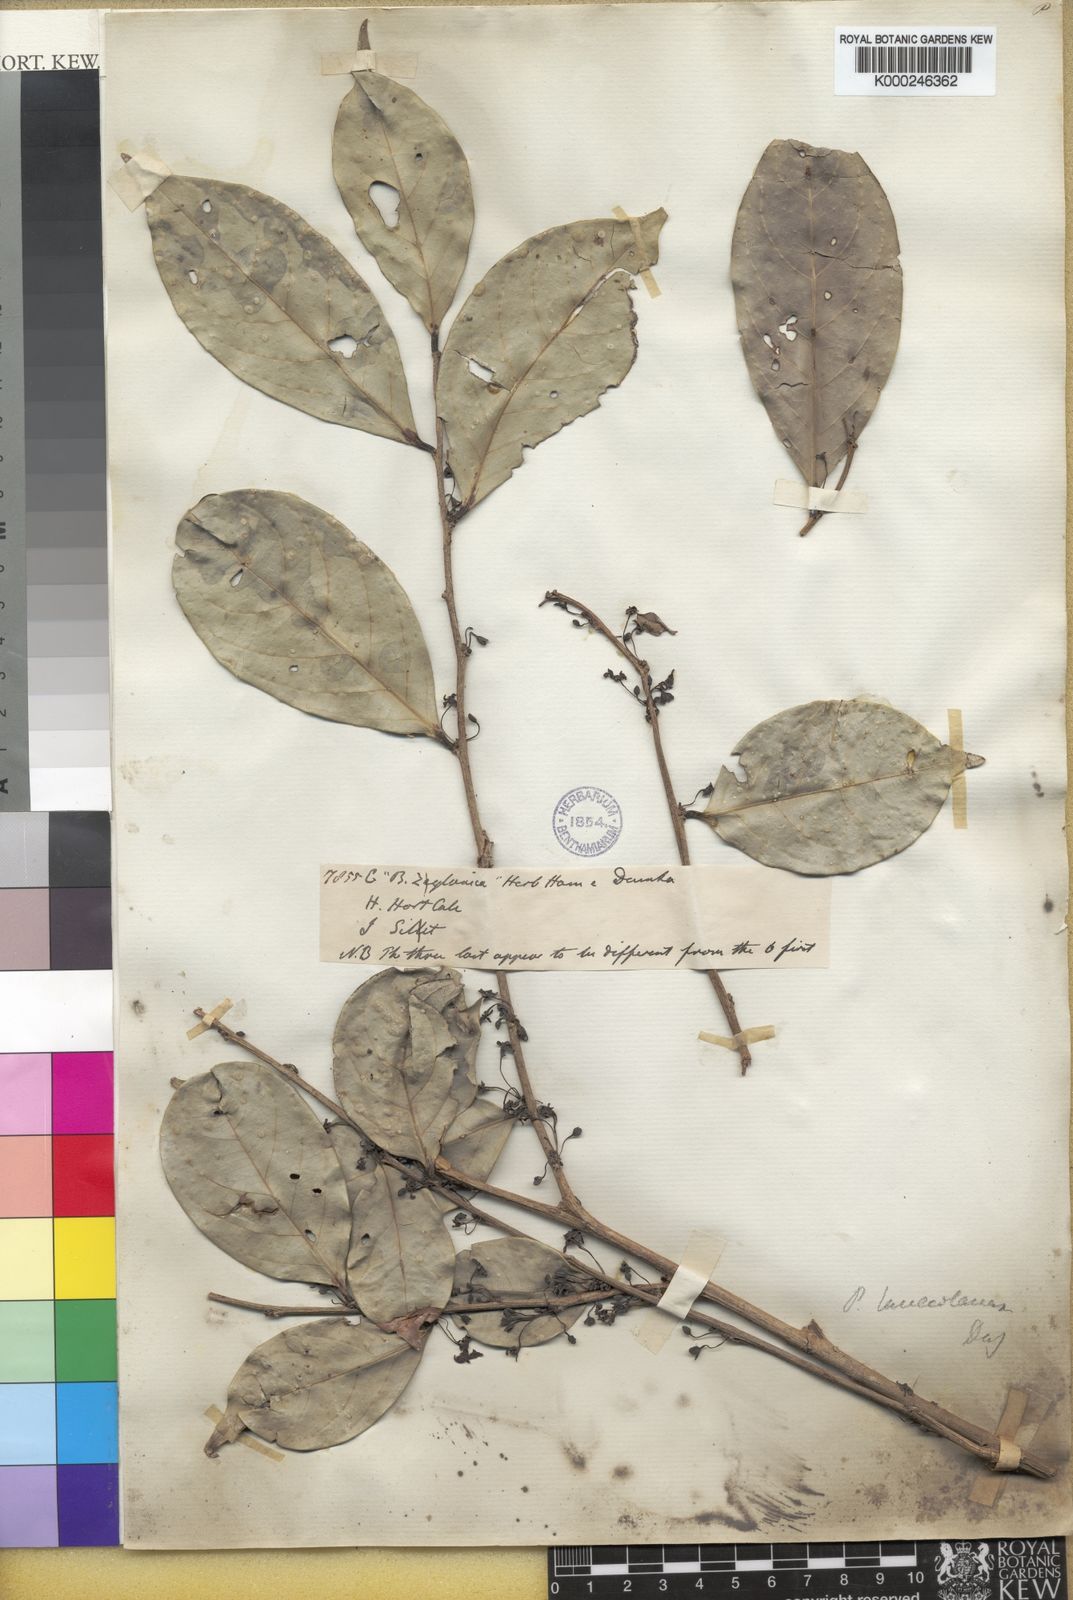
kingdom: Plantae
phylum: Tracheophyta
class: Magnoliopsida
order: Malpighiales
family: Phyllanthaceae
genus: Glochidion
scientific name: Glochidion lanceolarium
